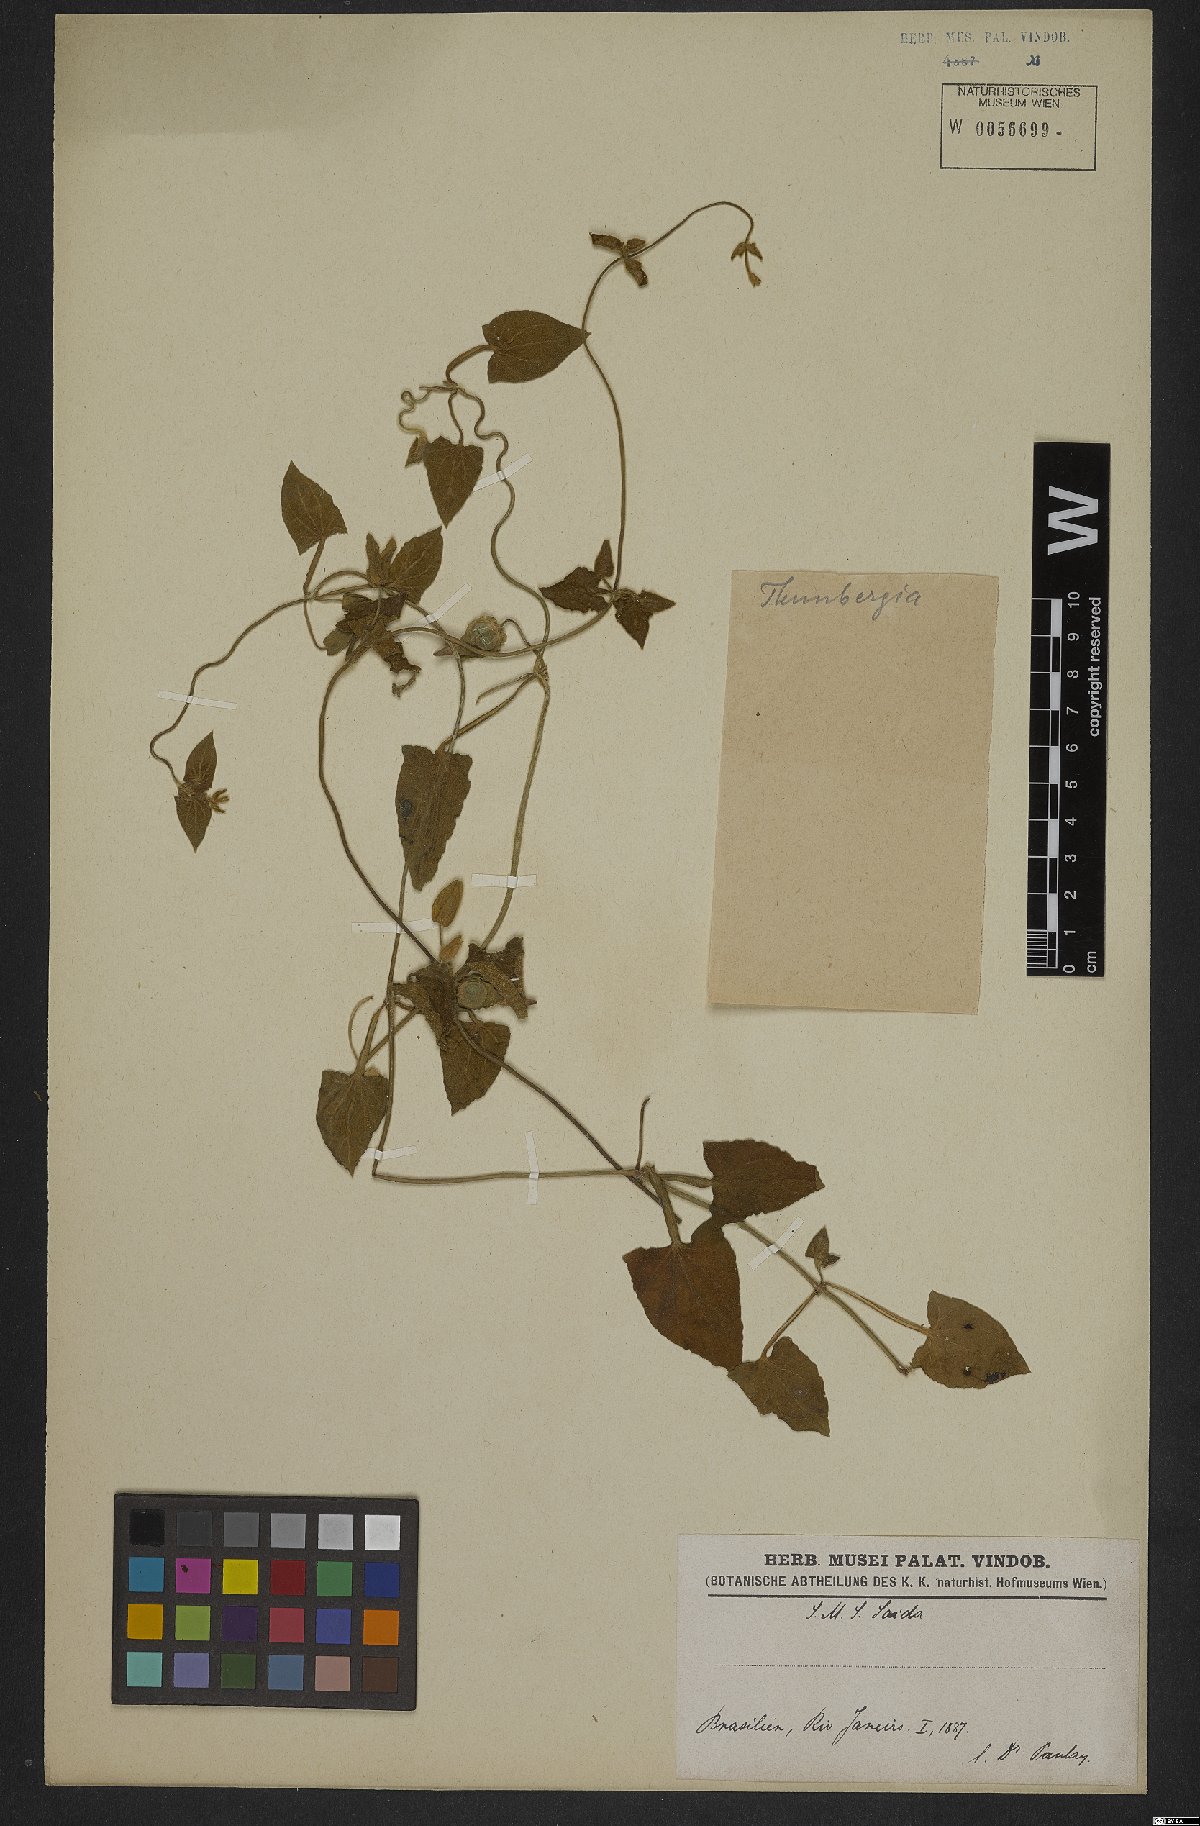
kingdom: Plantae
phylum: Tracheophyta
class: Magnoliopsida
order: Lamiales
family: Acanthaceae
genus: Thunbergia
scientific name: Thunbergia
